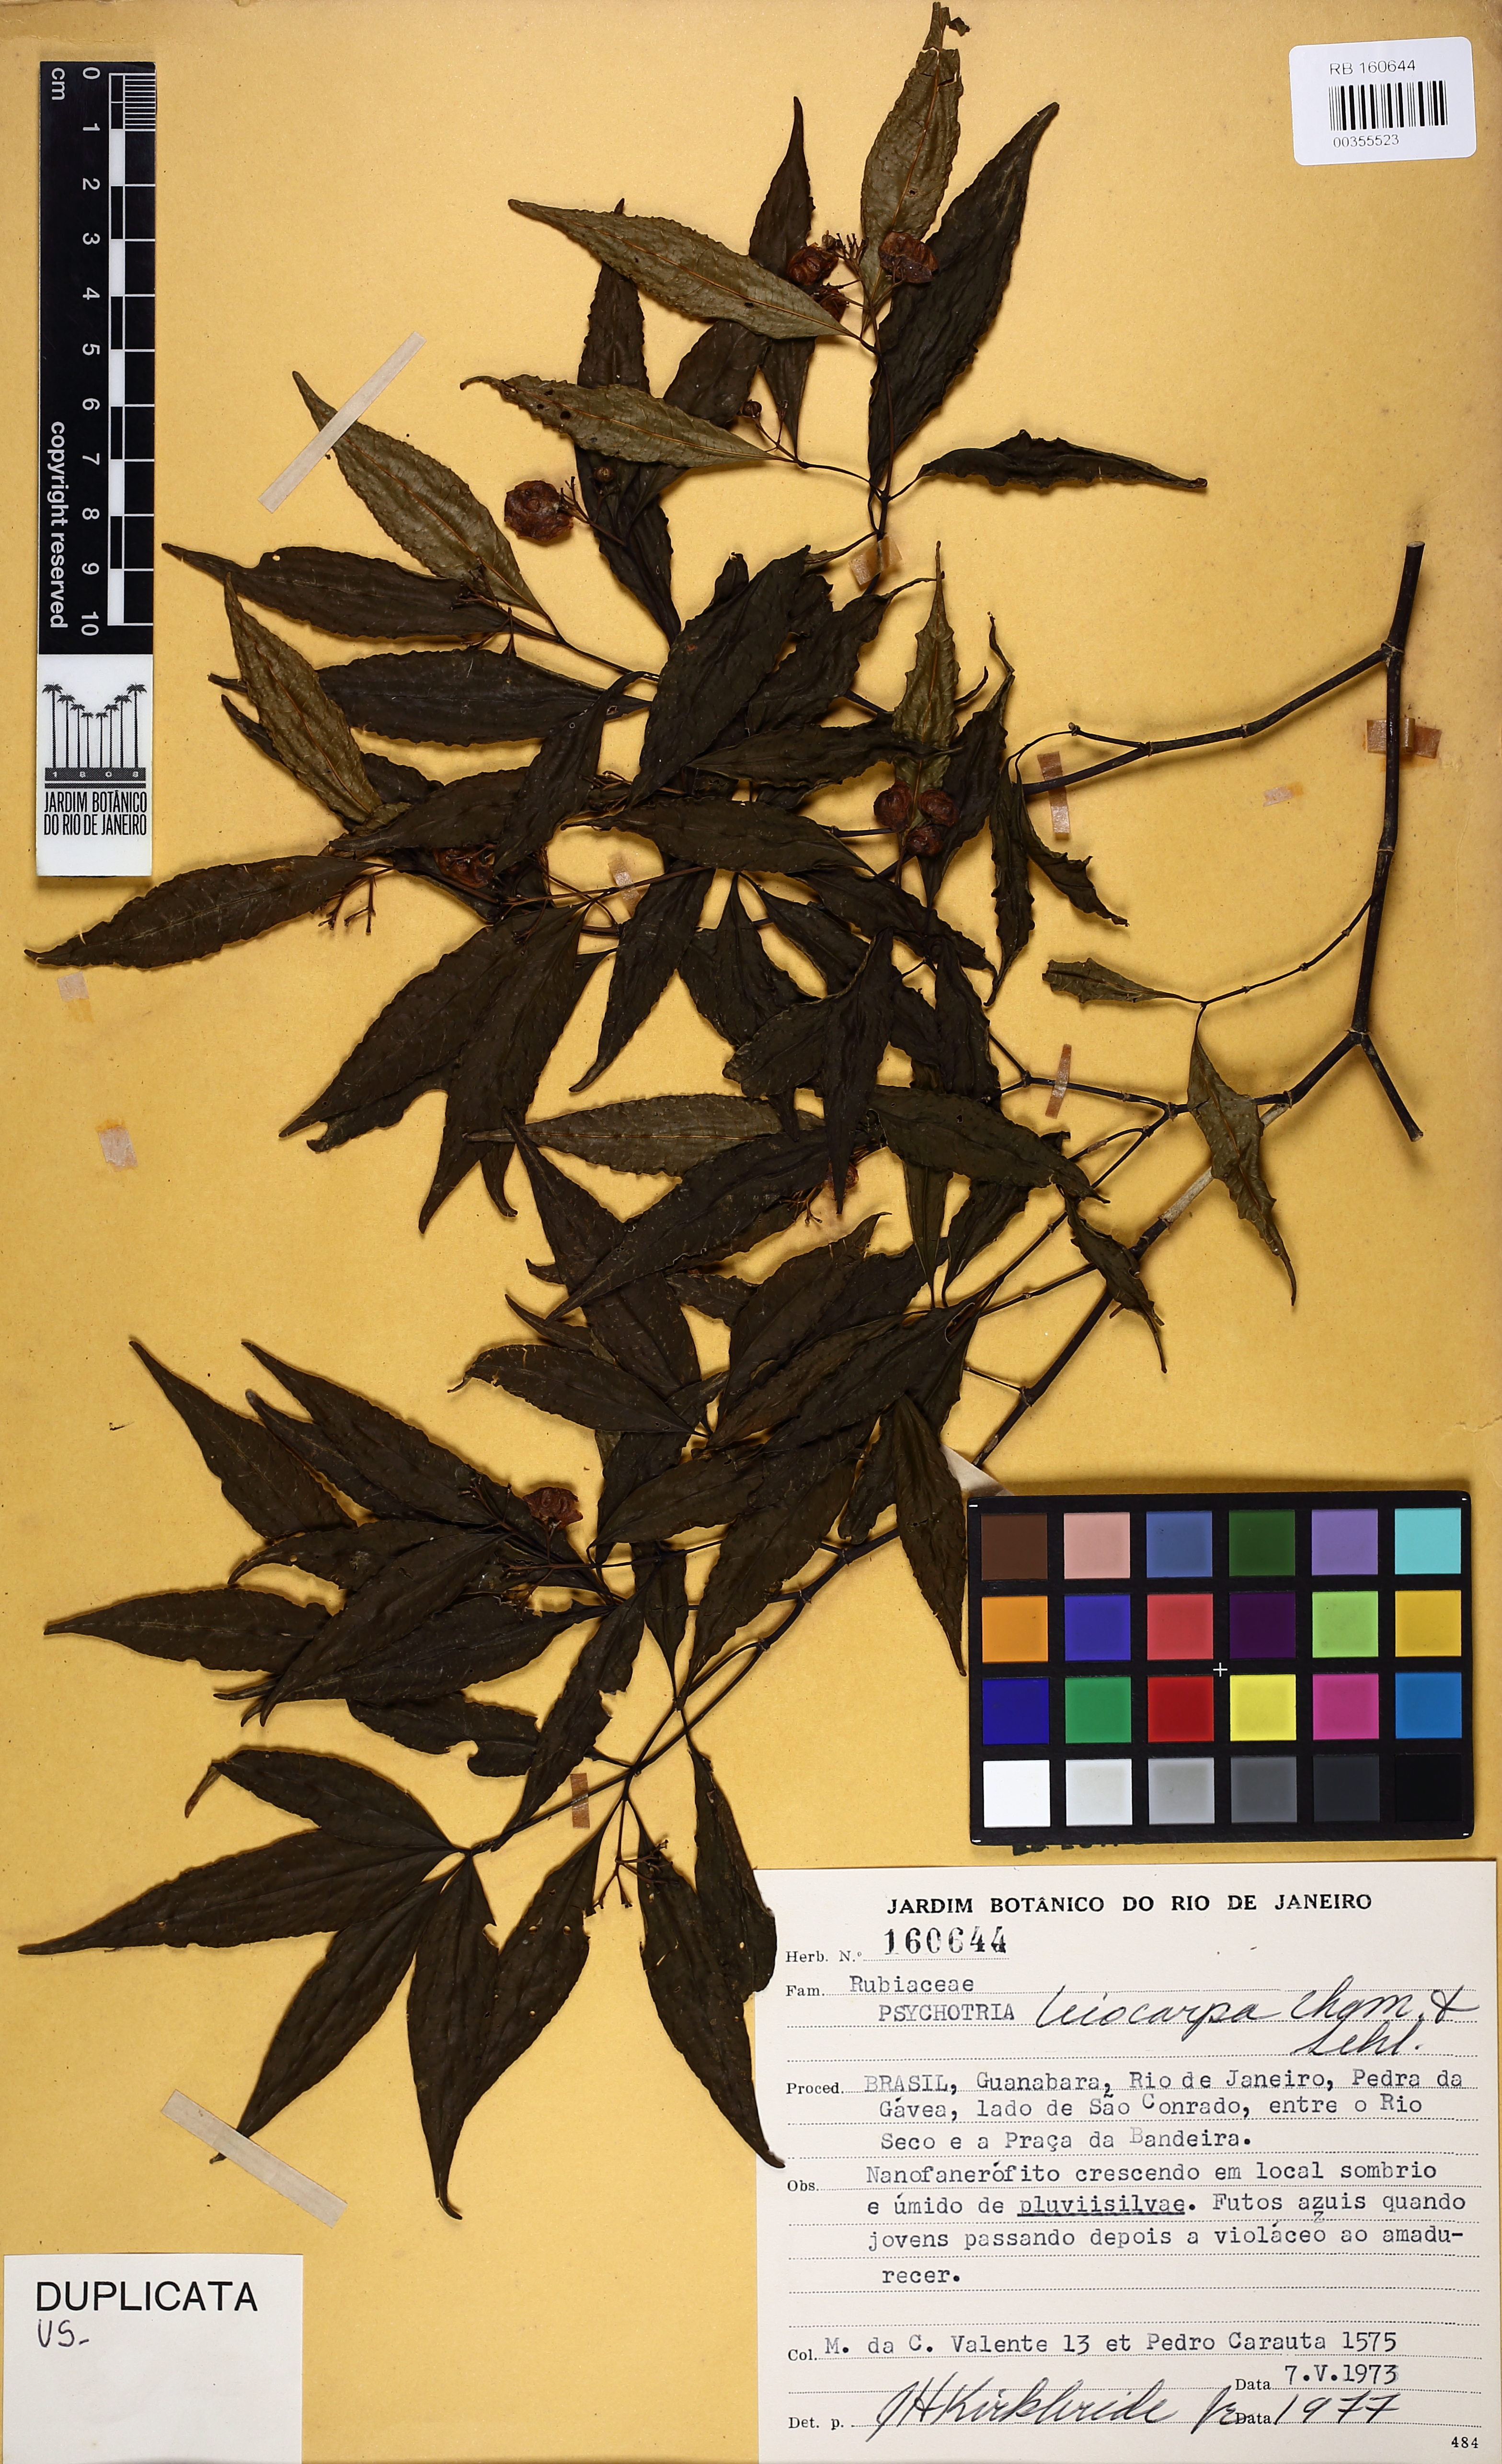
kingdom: Plantae
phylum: Tracheophyta
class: Magnoliopsida
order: Gentianales
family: Rubiaceae
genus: Psychotria
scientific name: Psychotria leiocarpa
